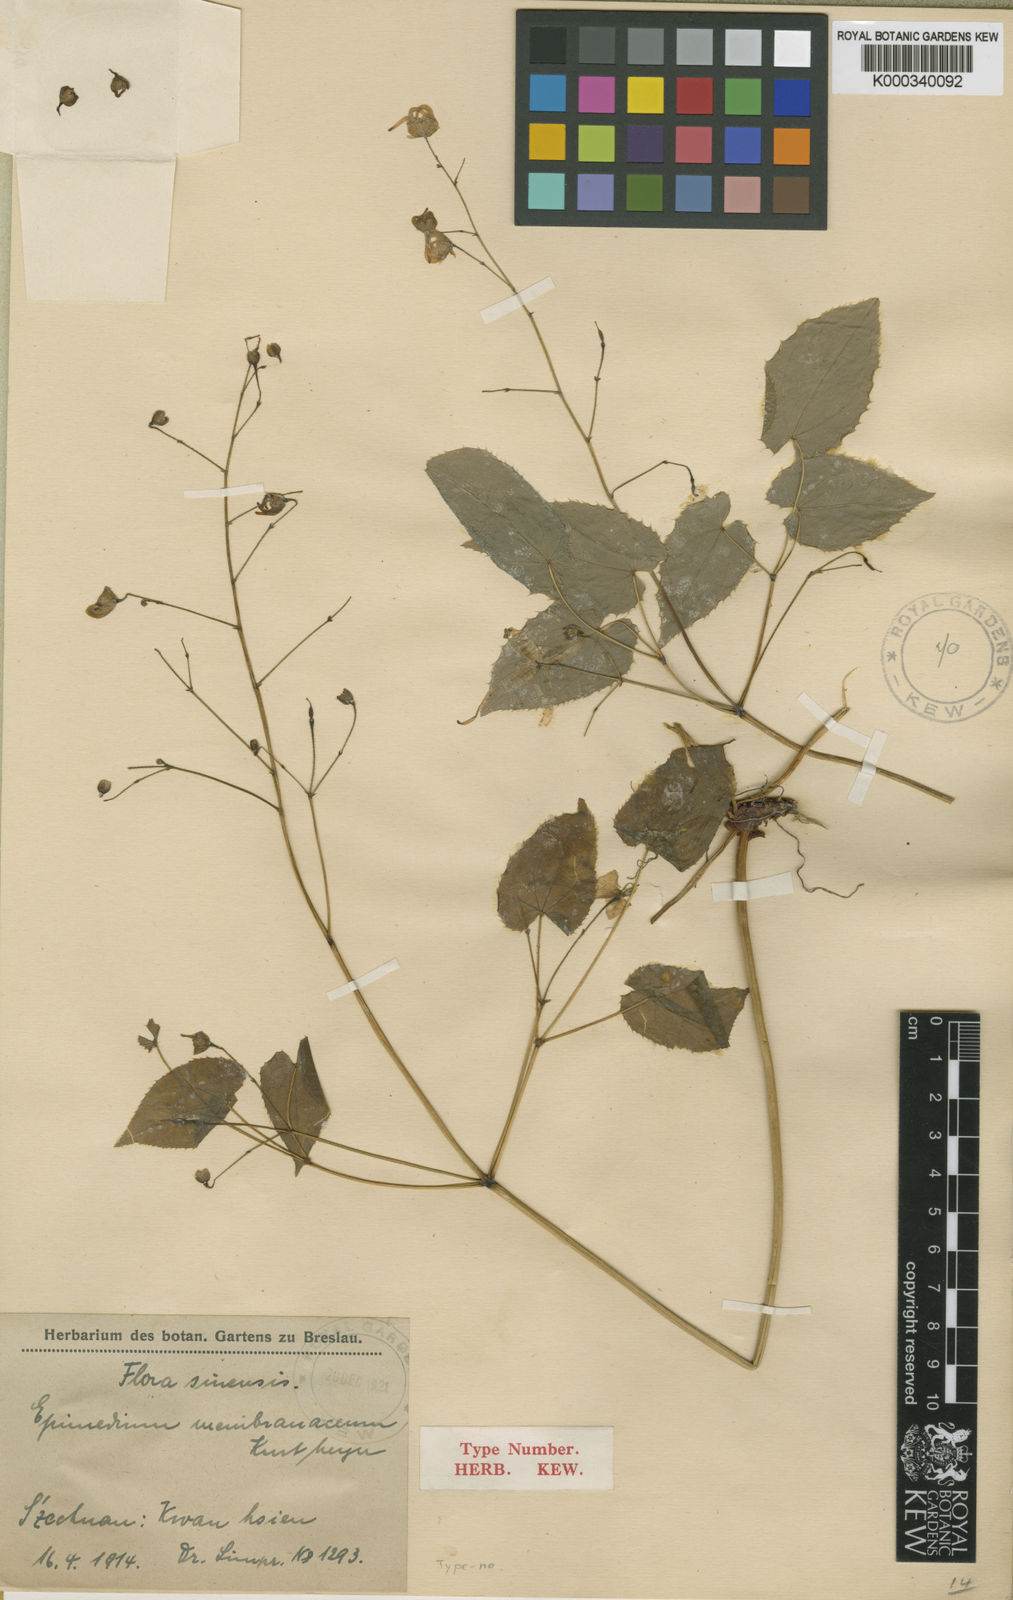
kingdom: Plantae
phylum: Tracheophyta
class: Magnoliopsida
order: Ranunculales
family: Berberidaceae
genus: Epimedium
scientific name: Epimedium davidii
